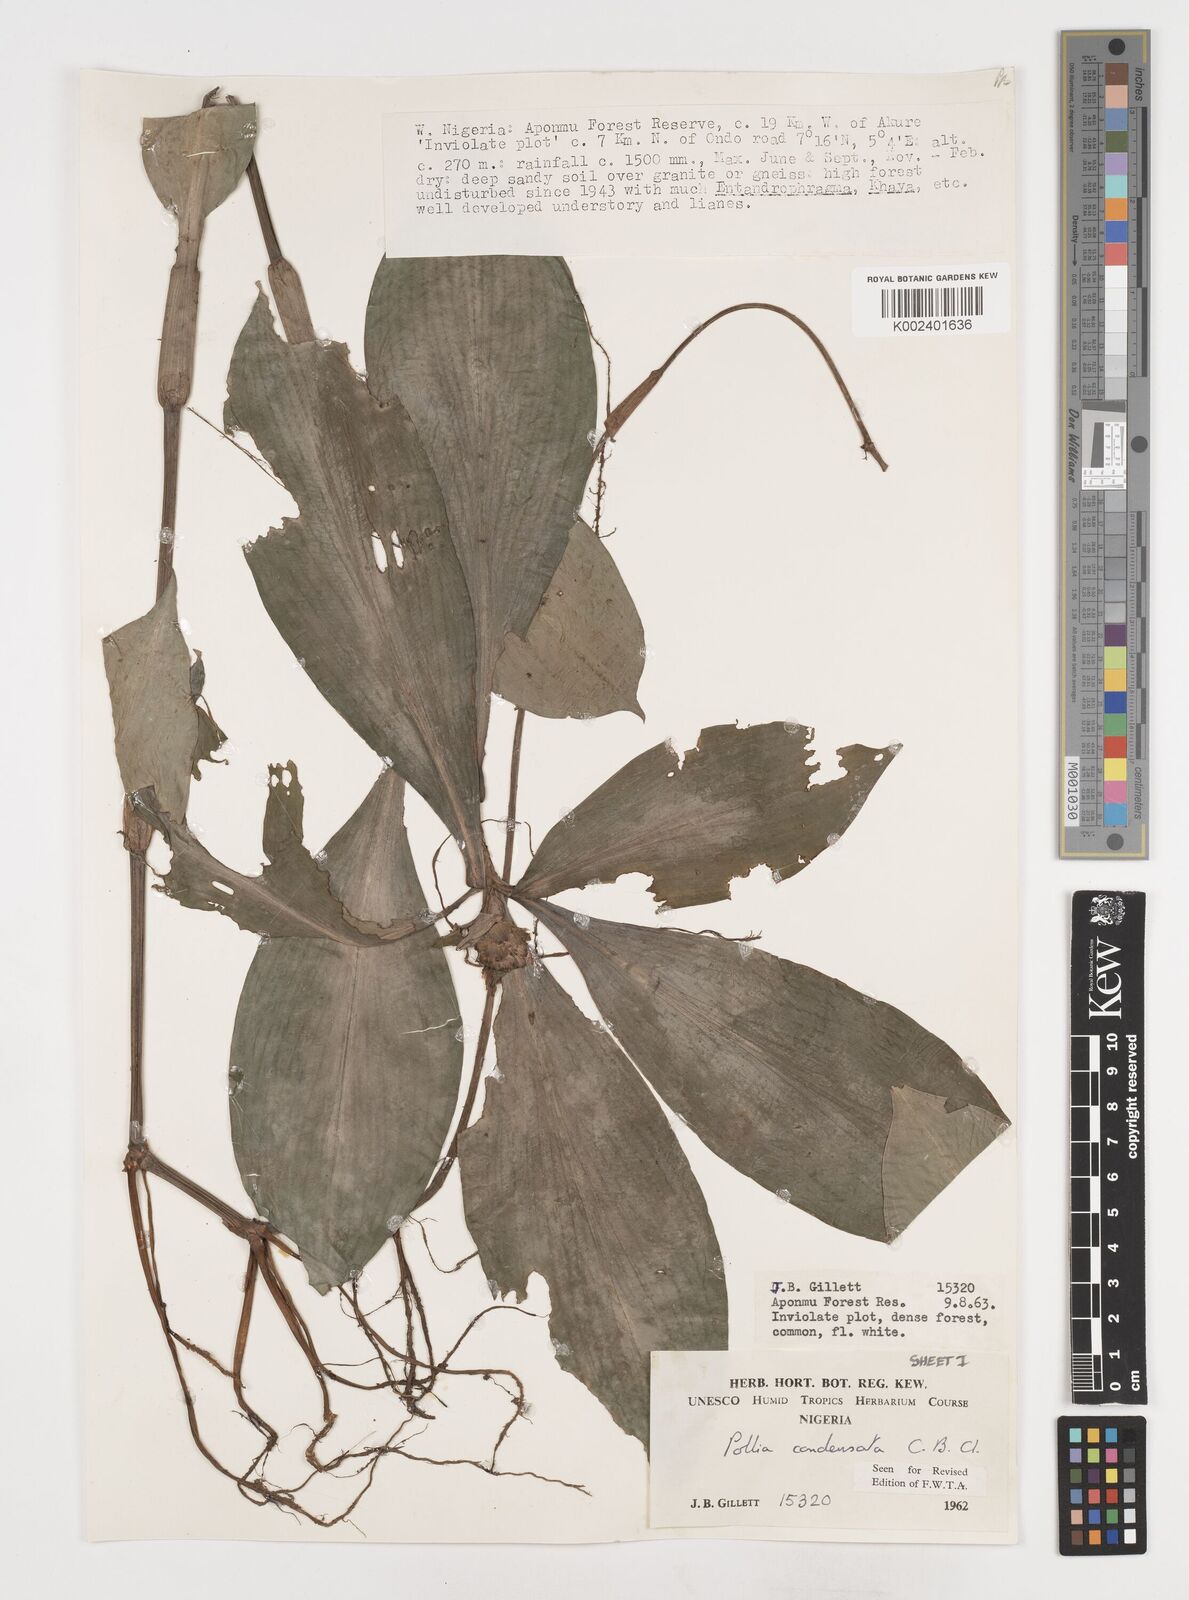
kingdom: Plantae
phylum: Tracheophyta
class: Liliopsida
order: Commelinales
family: Commelinaceae
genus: Pollia
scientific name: Pollia condensata
